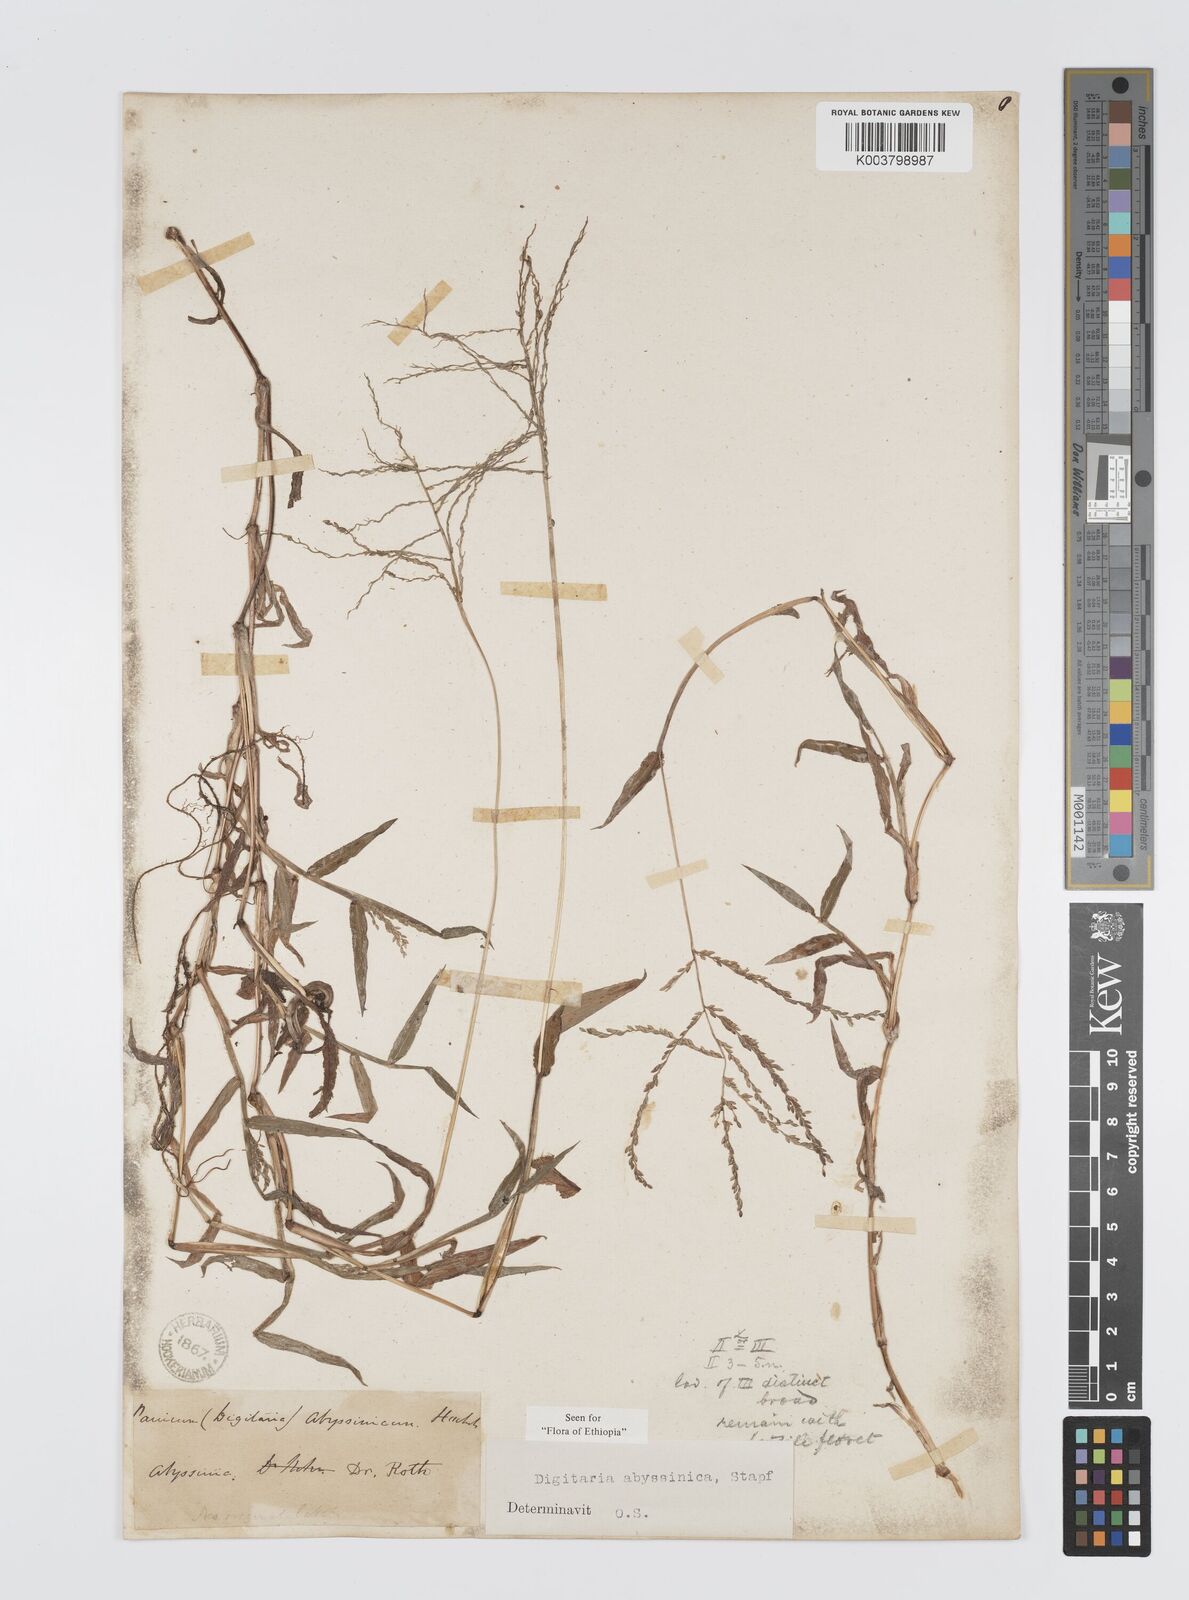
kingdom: Plantae
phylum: Tracheophyta
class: Liliopsida
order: Poales
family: Poaceae
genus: Digitaria
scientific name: Digitaria abyssinica
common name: African couchgrass
